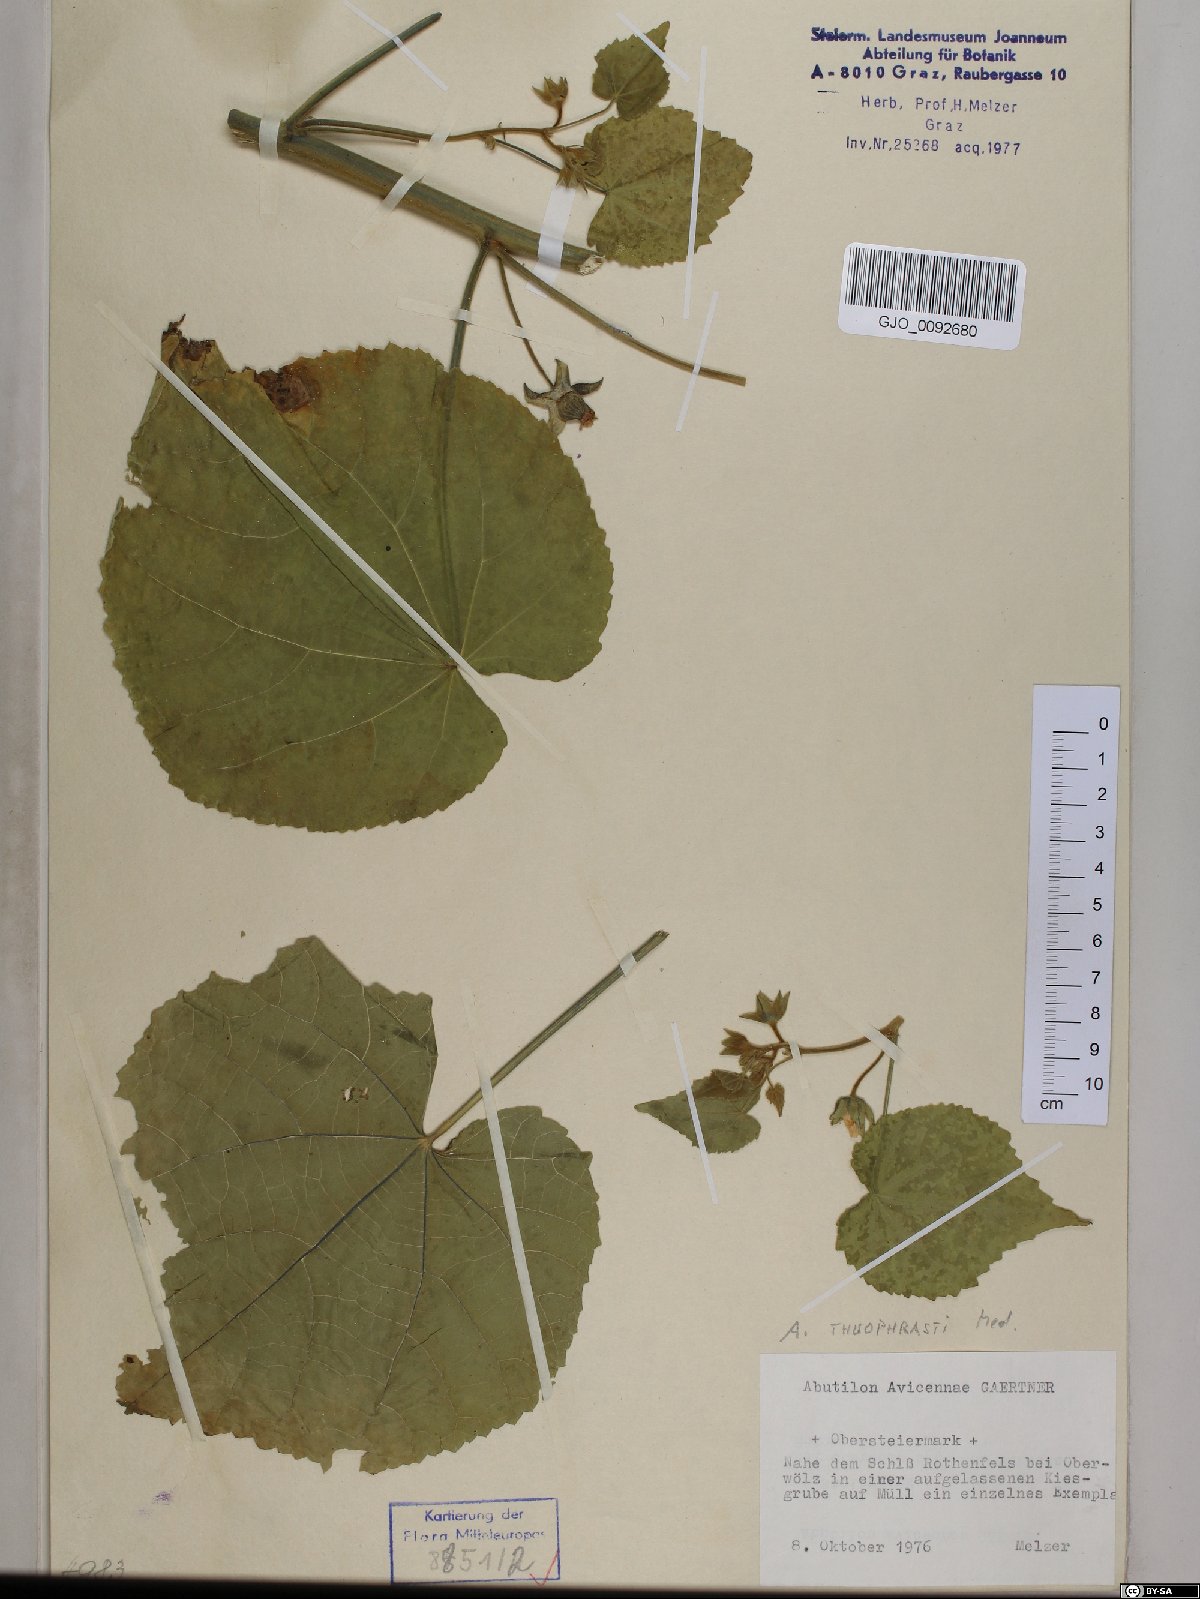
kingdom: Plantae
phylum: Tracheophyta
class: Magnoliopsida
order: Malvales
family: Malvaceae
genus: Abutilon
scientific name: Abutilon theophrasti
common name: Velvetleaf
